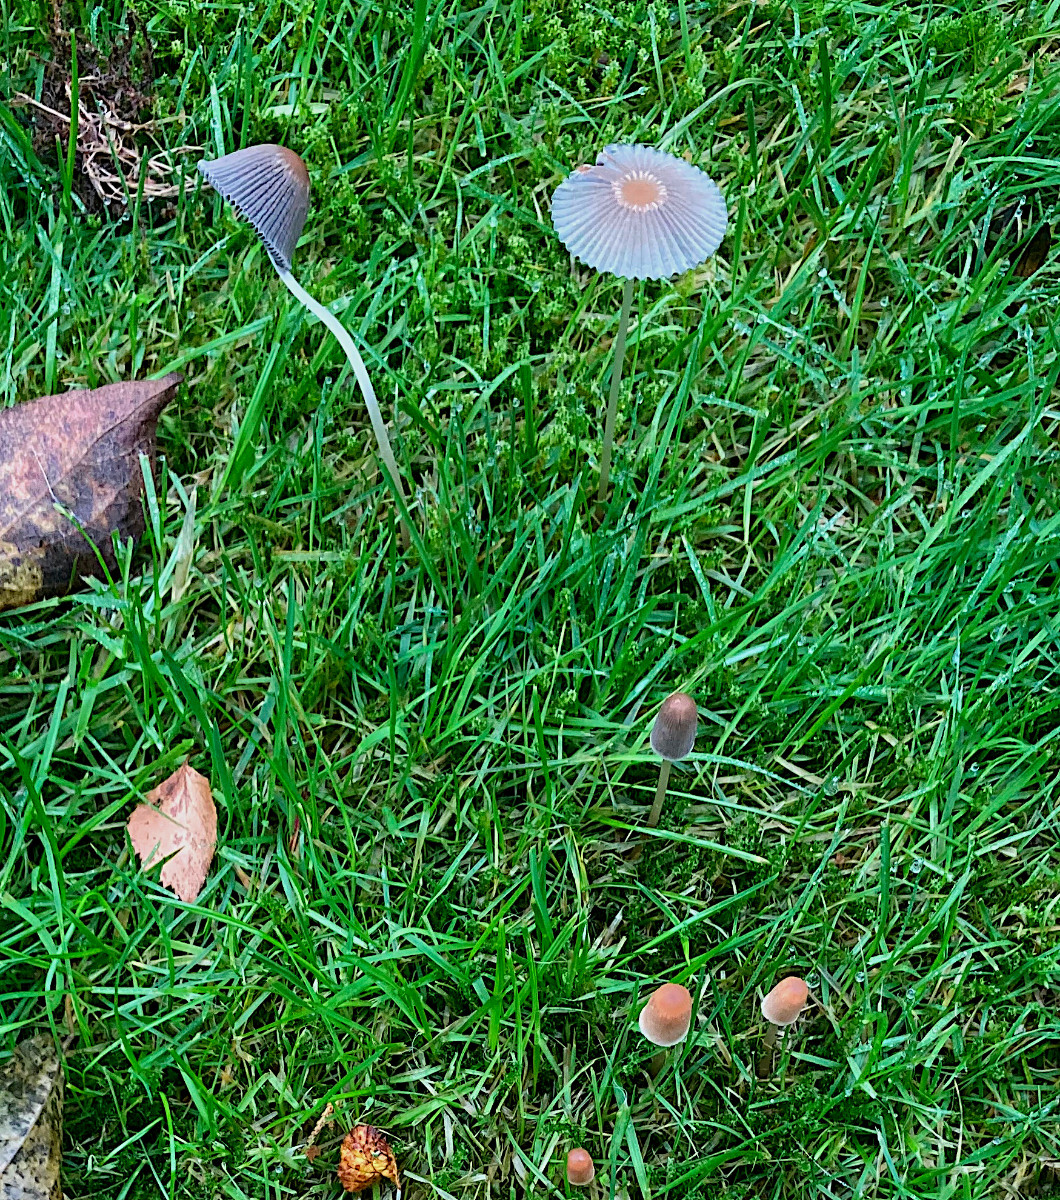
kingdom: Fungi
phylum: Basidiomycota
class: Agaricomycetes
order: Agaricales
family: Psathyrellaceae
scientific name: Psathyrellaceae
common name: mørkhatfamilien
